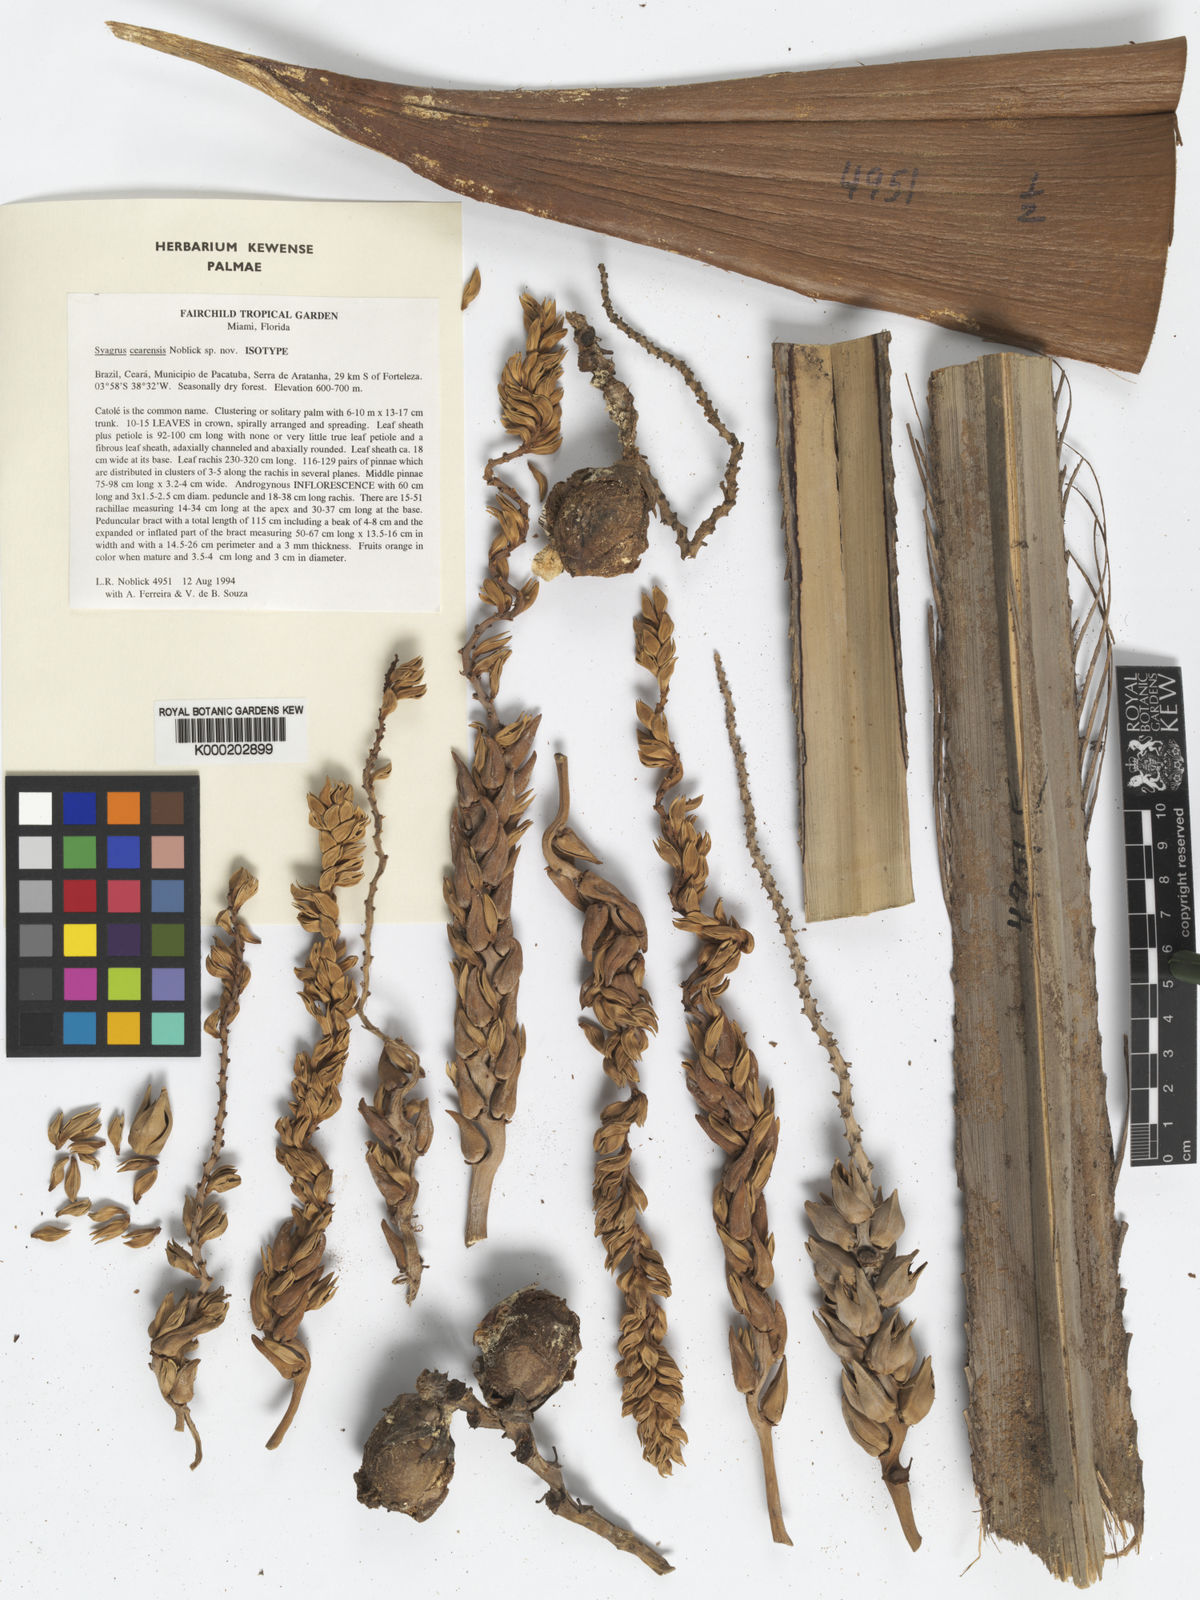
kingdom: Plantae
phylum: Tracheophyta
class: Liliopsida
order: Arecales
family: Arecaceae
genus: Syagrus
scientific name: Syagrus cearensis
